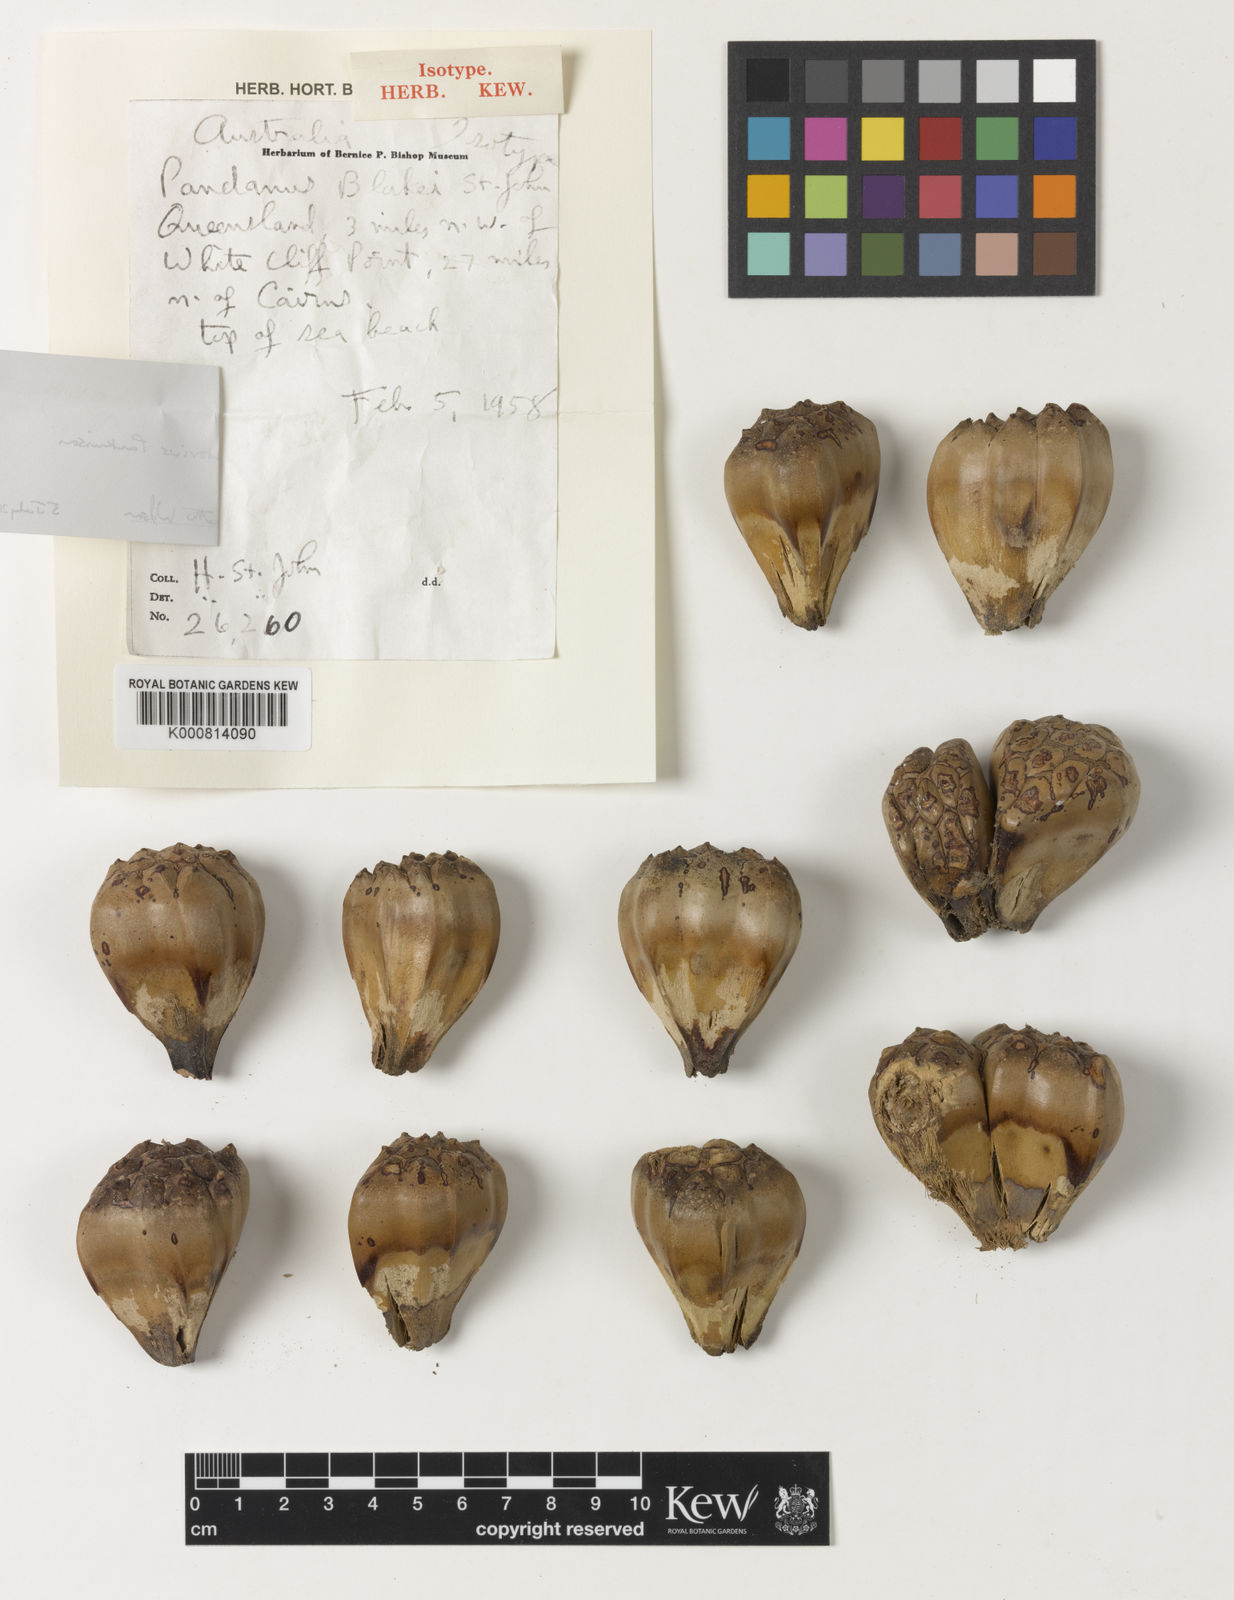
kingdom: Plantae
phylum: Tracheophyta
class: Liliopsida
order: Pandanales
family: Pandanaceae
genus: Pandanus
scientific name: Pandanus
